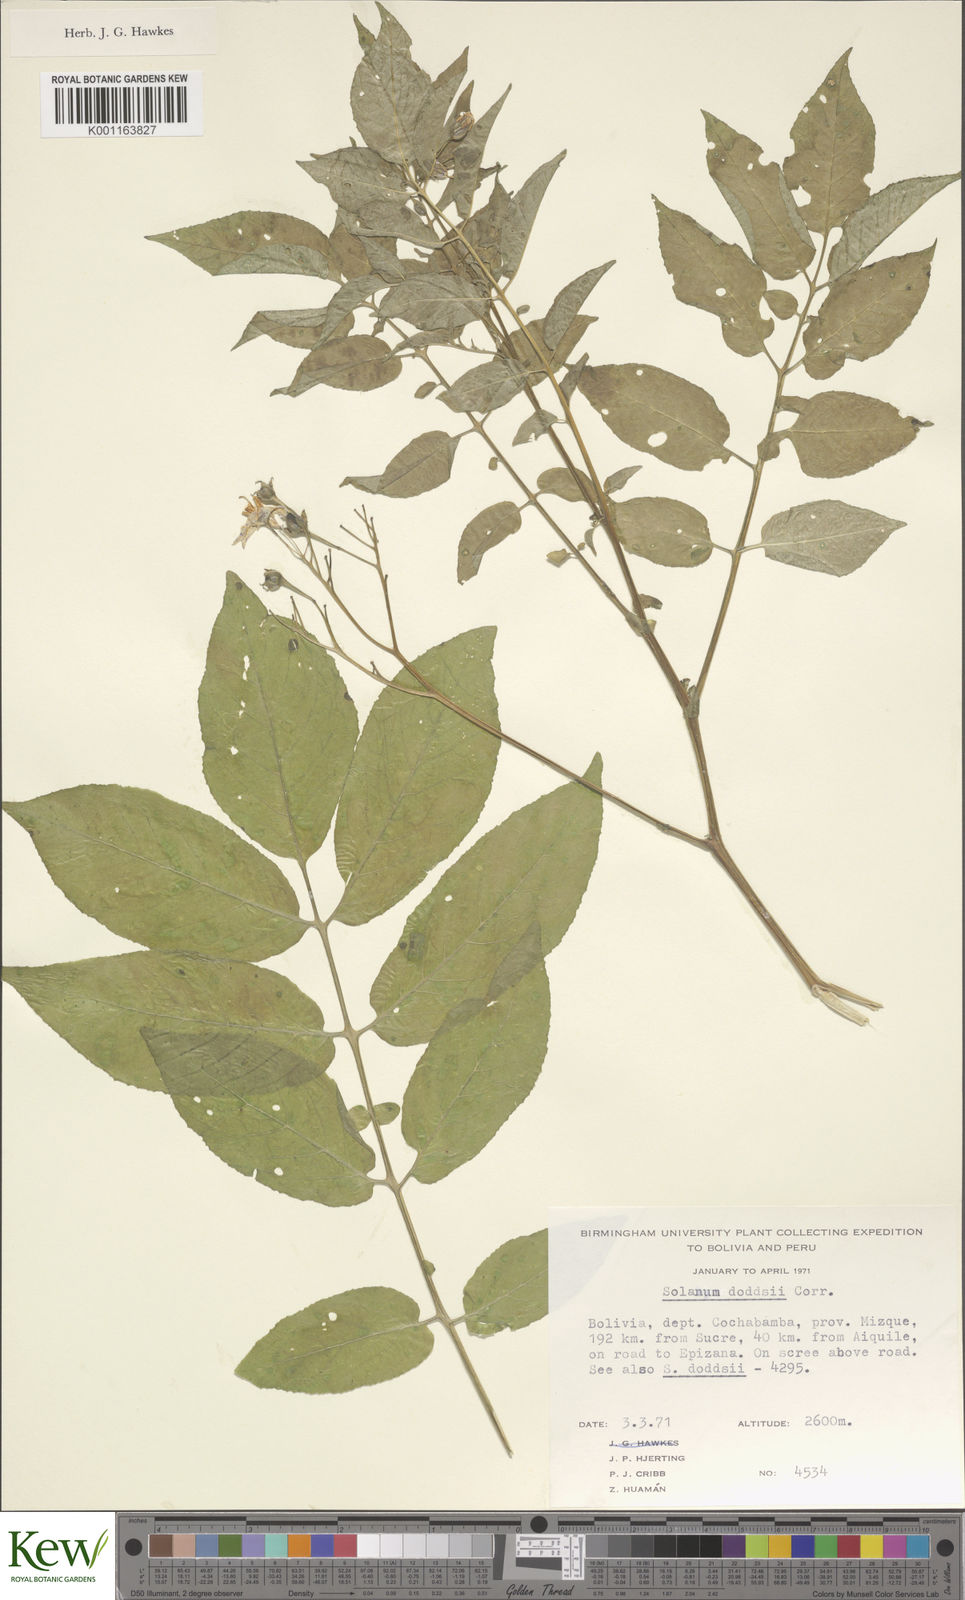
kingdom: Plantae
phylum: Tracheophyta
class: Magnoliopsida
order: Solanales
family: Solanaceae
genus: Solanum
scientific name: Solanum doddsii
